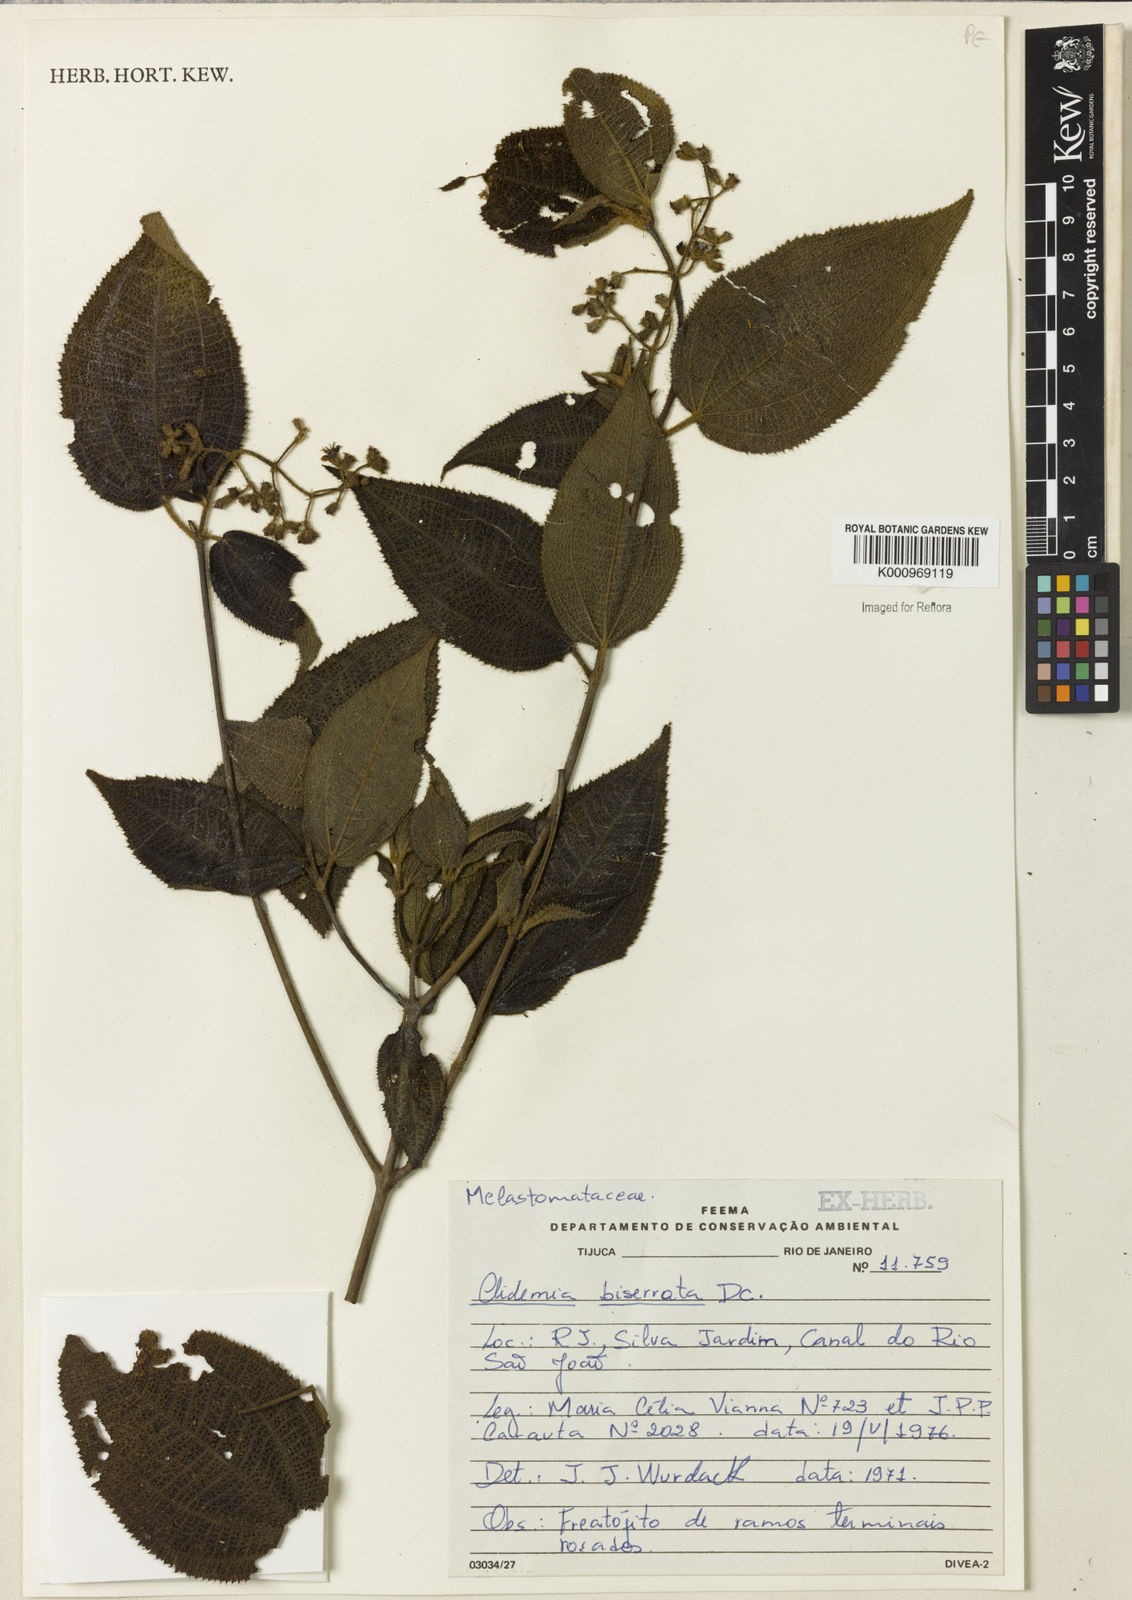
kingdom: Plantae
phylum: Tracheophyta
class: Magnoliopsida
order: Myrtales
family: Melastomataceae
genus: Miconia
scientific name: Miconia biserrata
